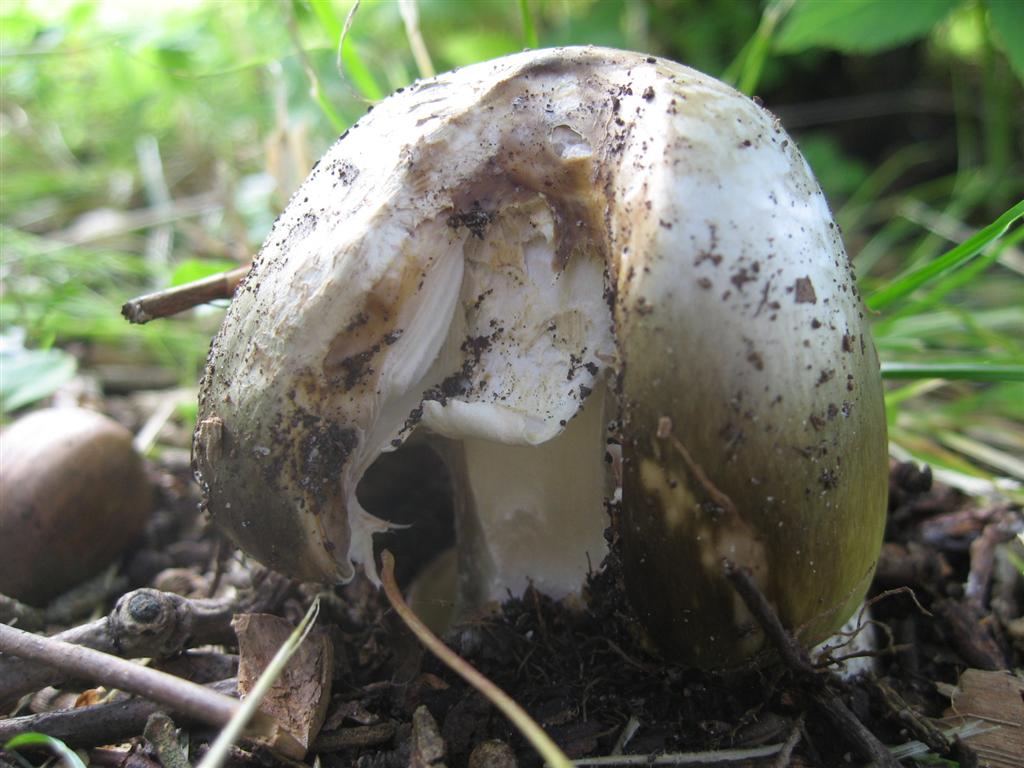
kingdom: Fungi
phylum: Basidiomycota
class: Agaricomycetes
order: Agaricales
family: Amanitaceae
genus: Amanita
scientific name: Amanita phalloides
